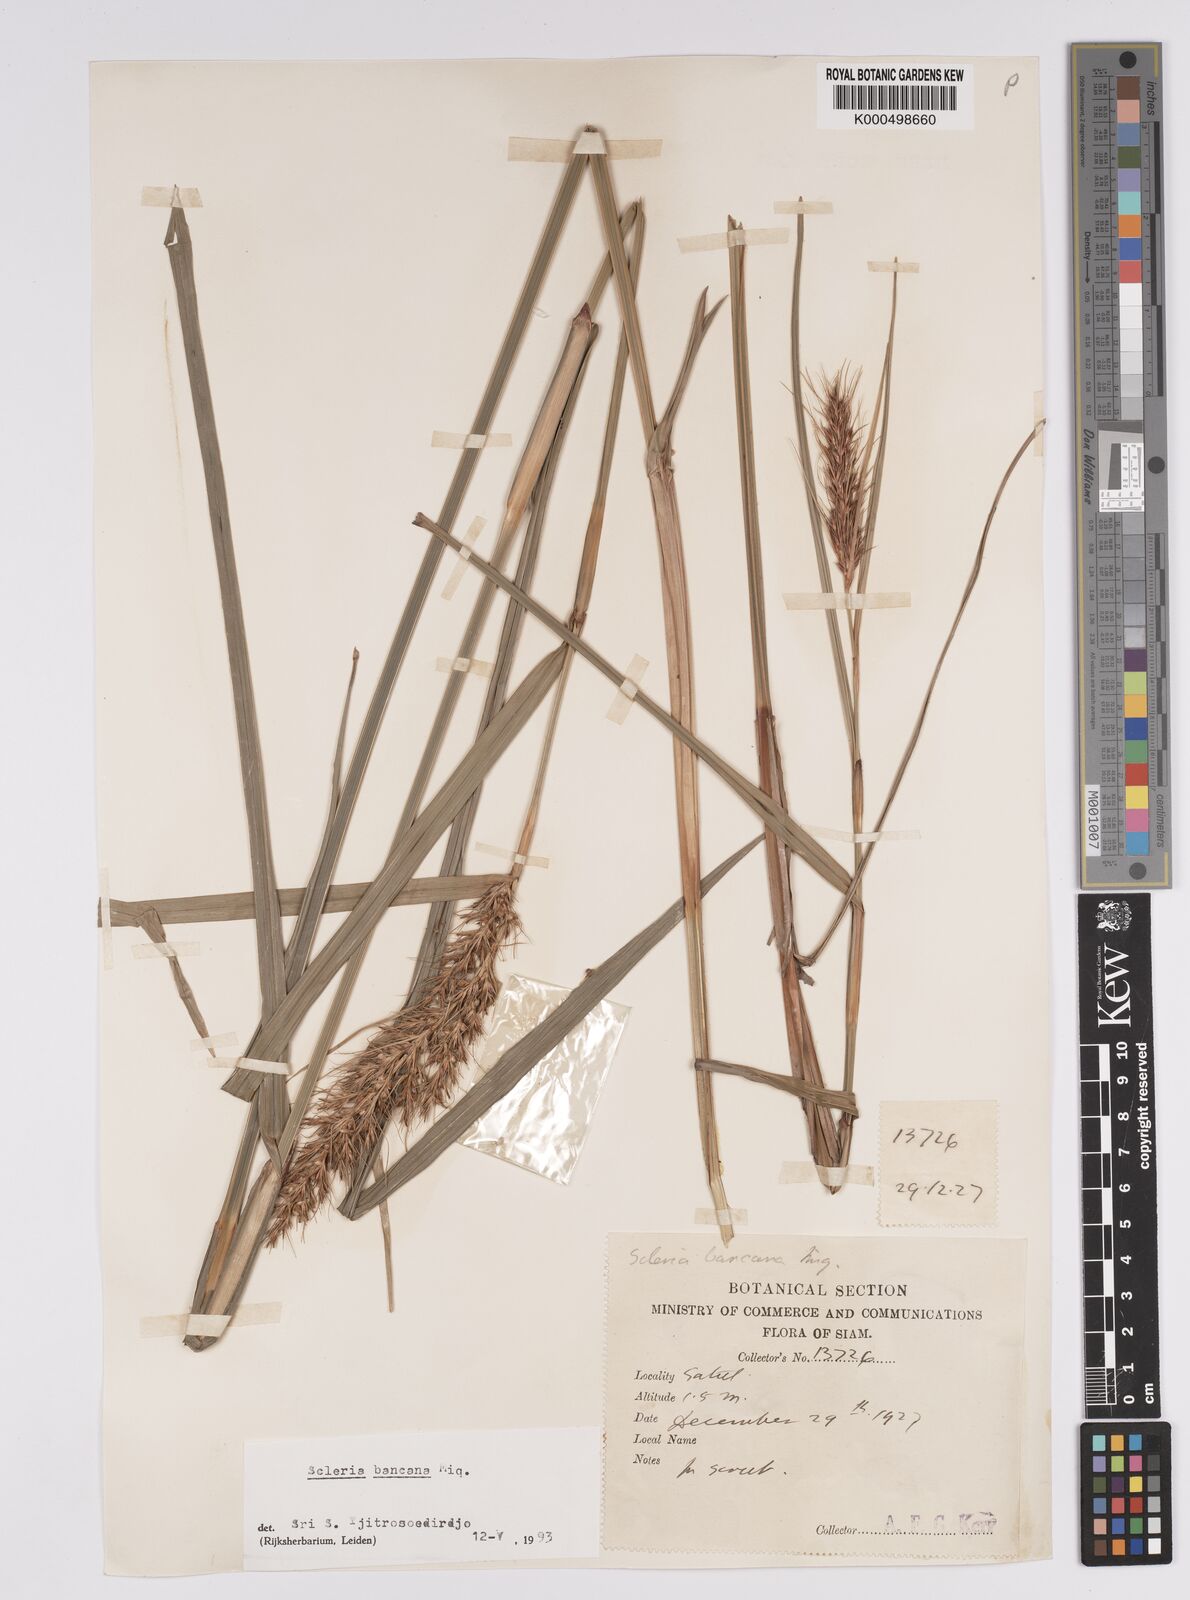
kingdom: Plantae
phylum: Tracheophyta
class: Liliopsida
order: Poales
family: Cyperaceae
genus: Scleria
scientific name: Scleria ciliaris
